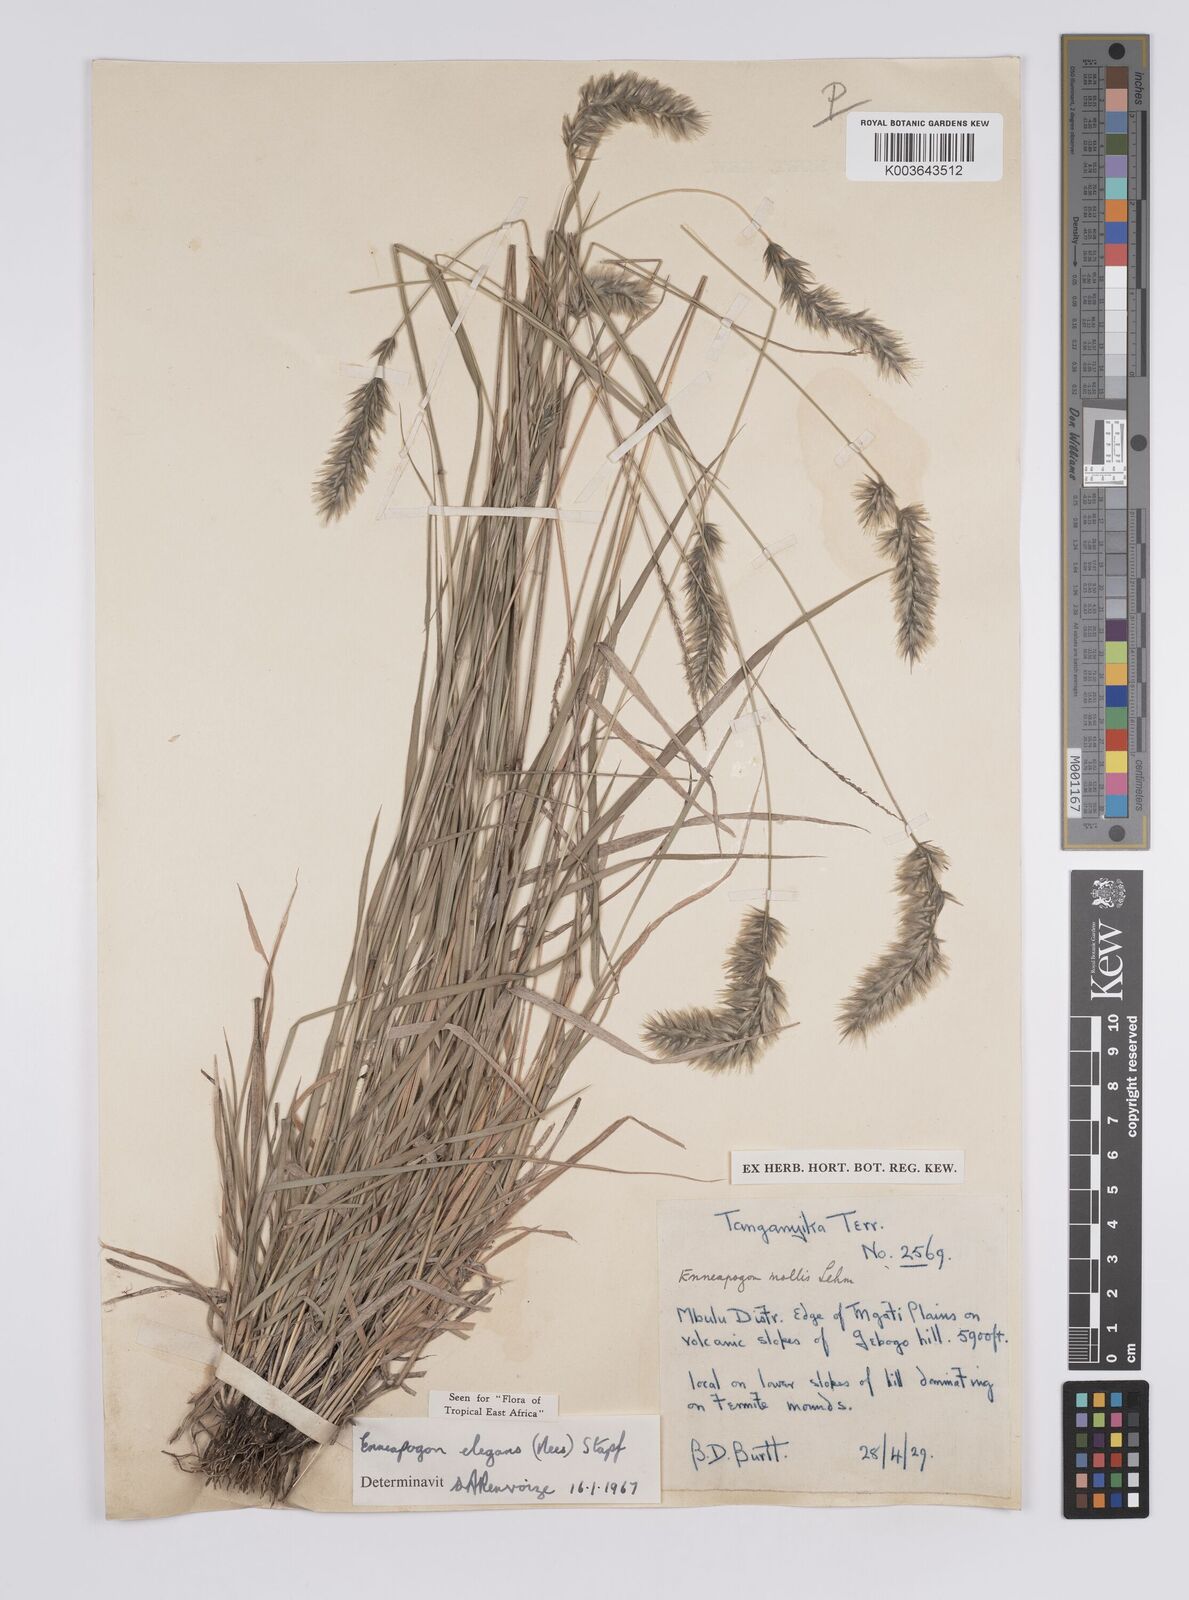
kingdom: Plantae
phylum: Tracheophyta
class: Liliopsida
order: Poales
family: Poaceae
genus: Enneapogon
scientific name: Enneapogon persicus
